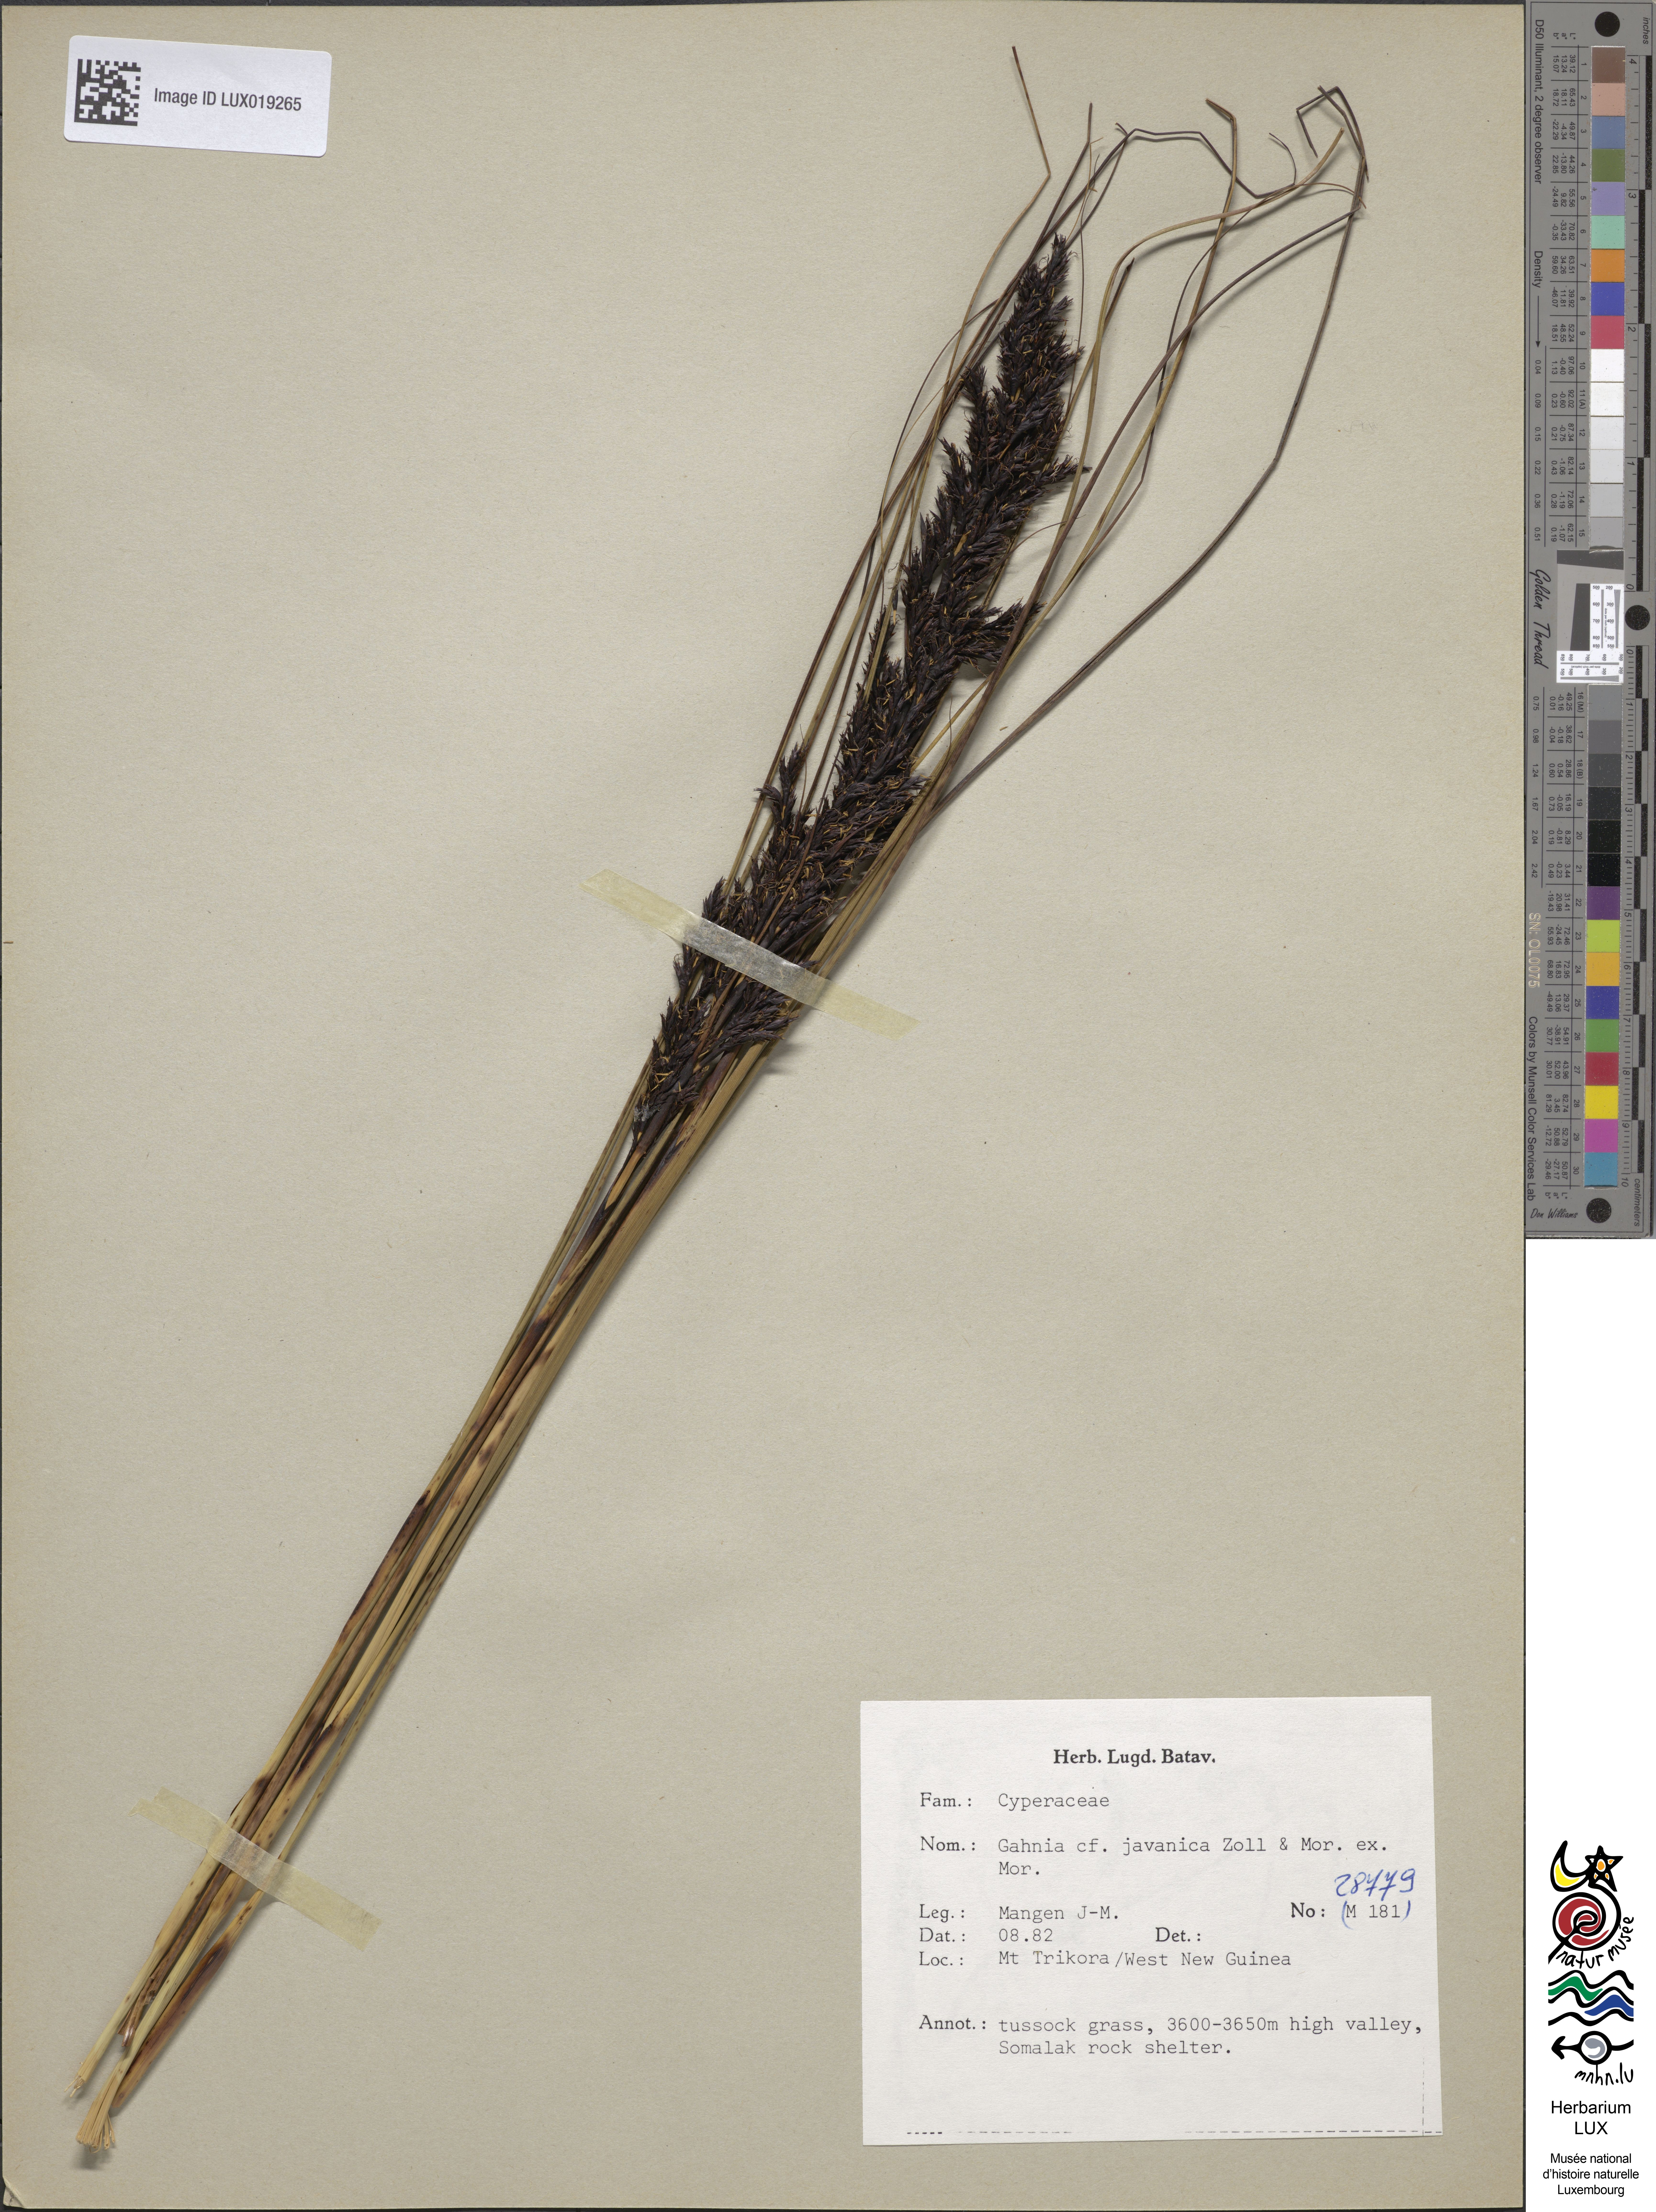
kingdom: Plantae
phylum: Tracheophyta
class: Liliopsida
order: Poales
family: Cyperaceae
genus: Gahnia
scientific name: Gahnia javanica
